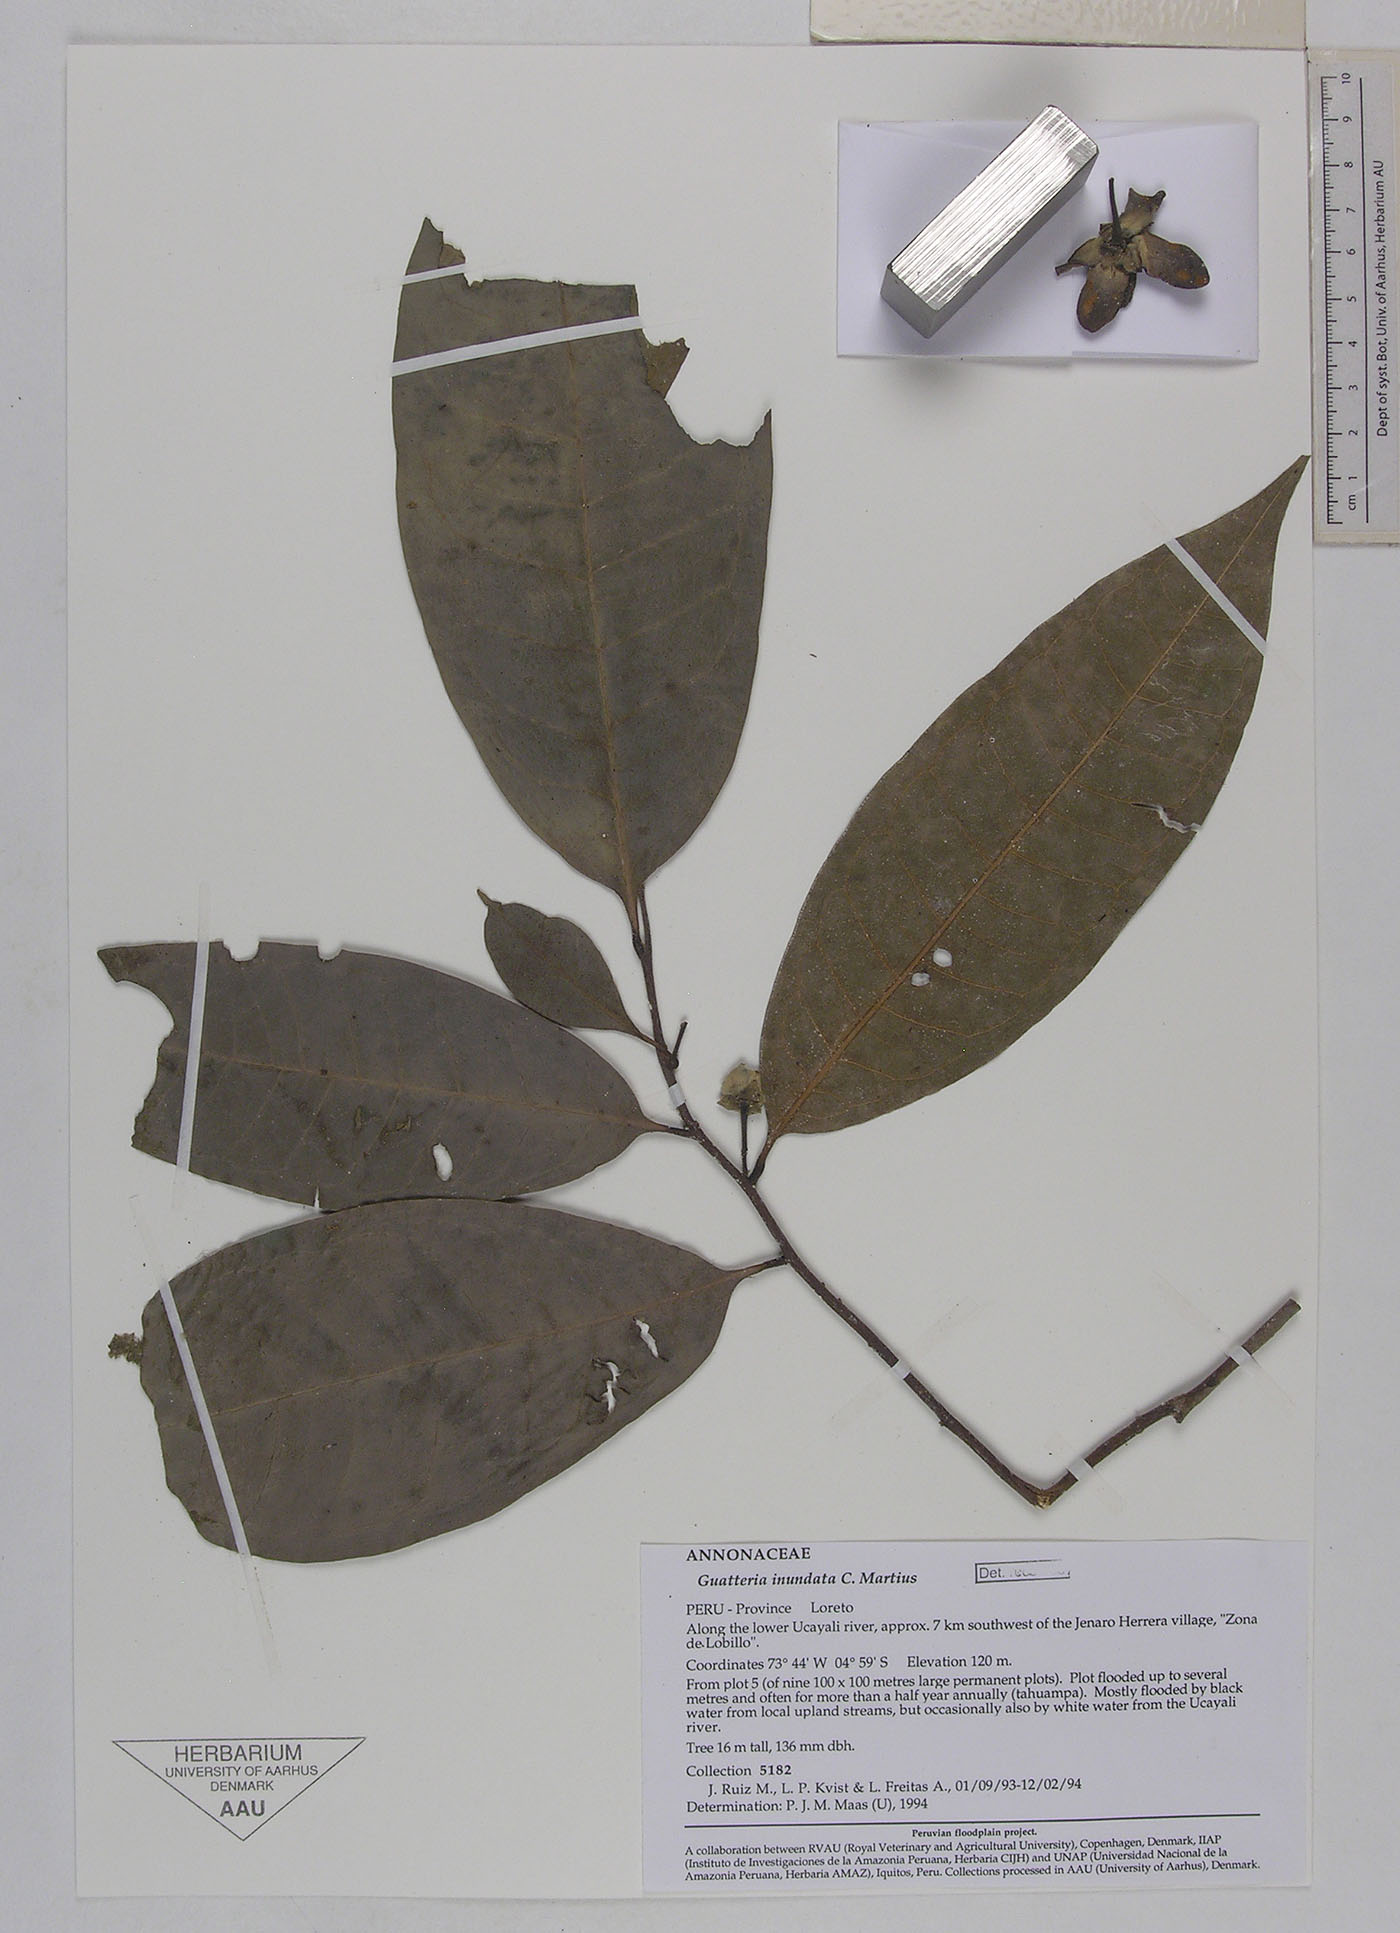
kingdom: Plantae
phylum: Tracheophyta
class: Magnoliopsida
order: Magnoliales
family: Annonaceae
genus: Guatteria
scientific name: Guatteria inundata
